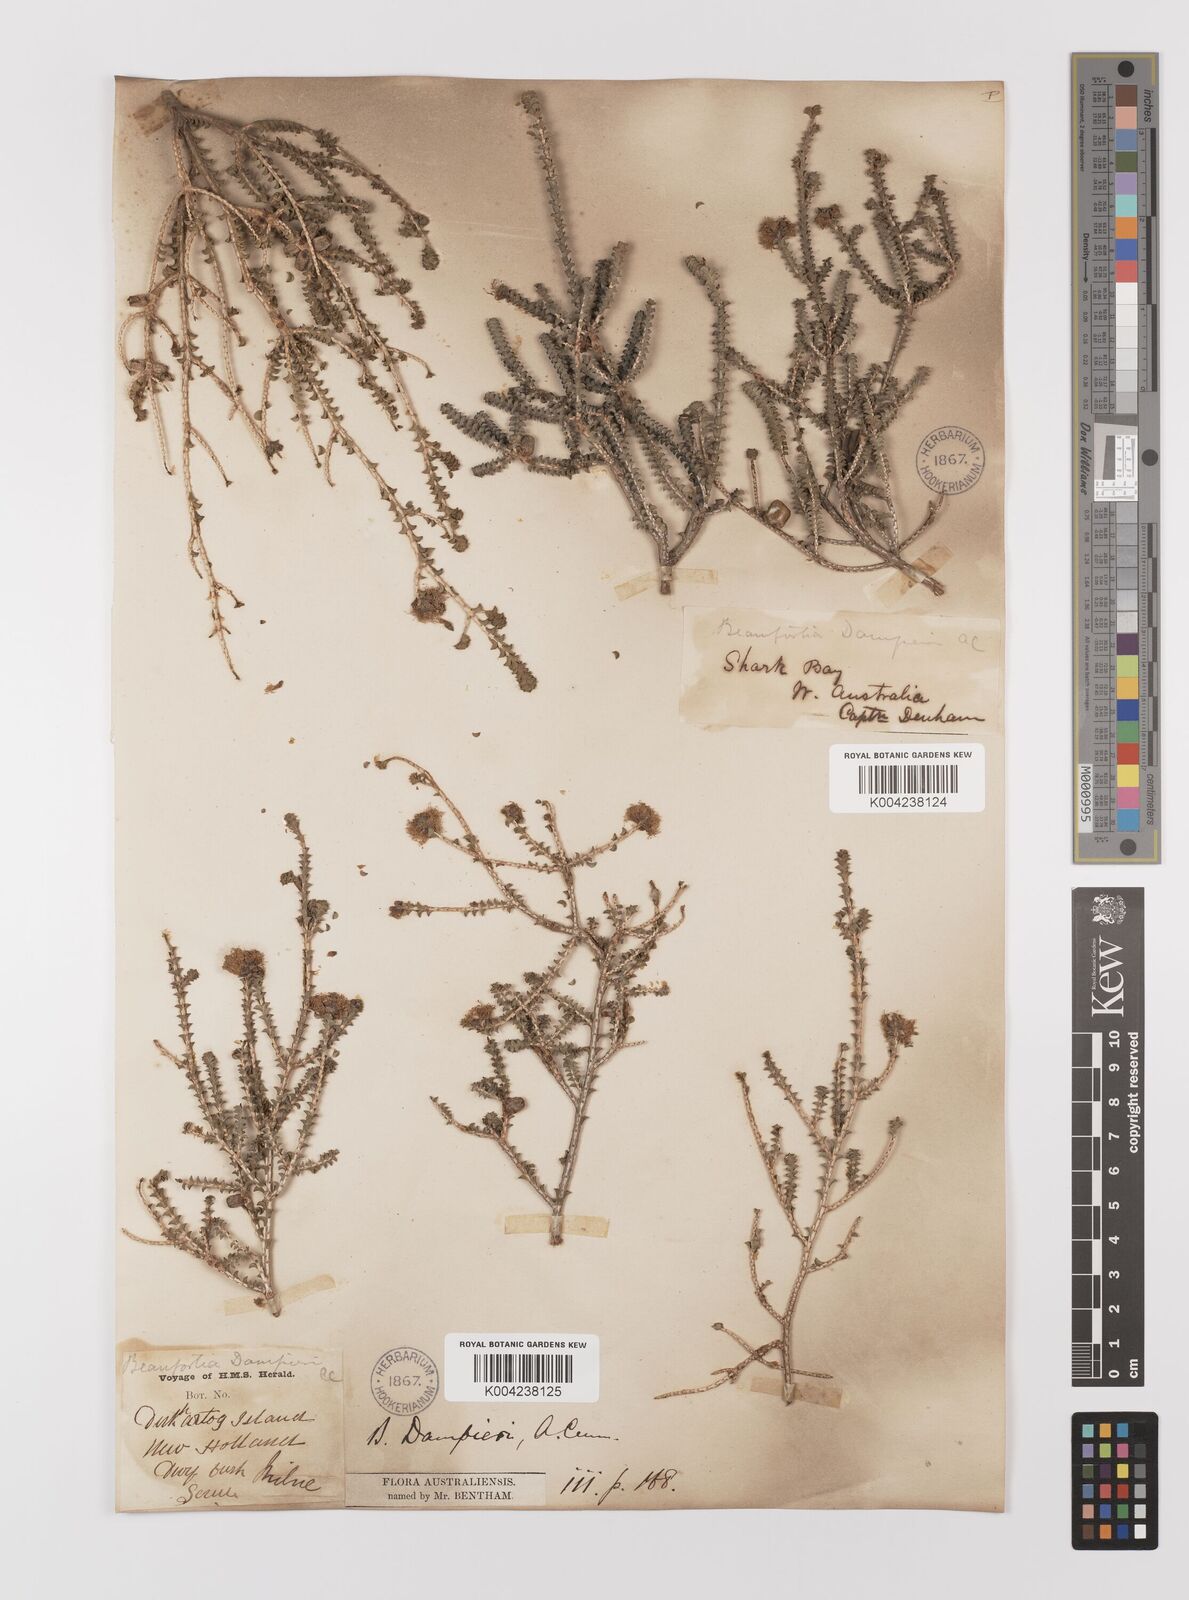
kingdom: Plantae
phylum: Tracheophyta
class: Magnoliopsida
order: Myrtales
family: Myrtaceae
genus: Melaleuca
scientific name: Melaleuca sprengelioides
